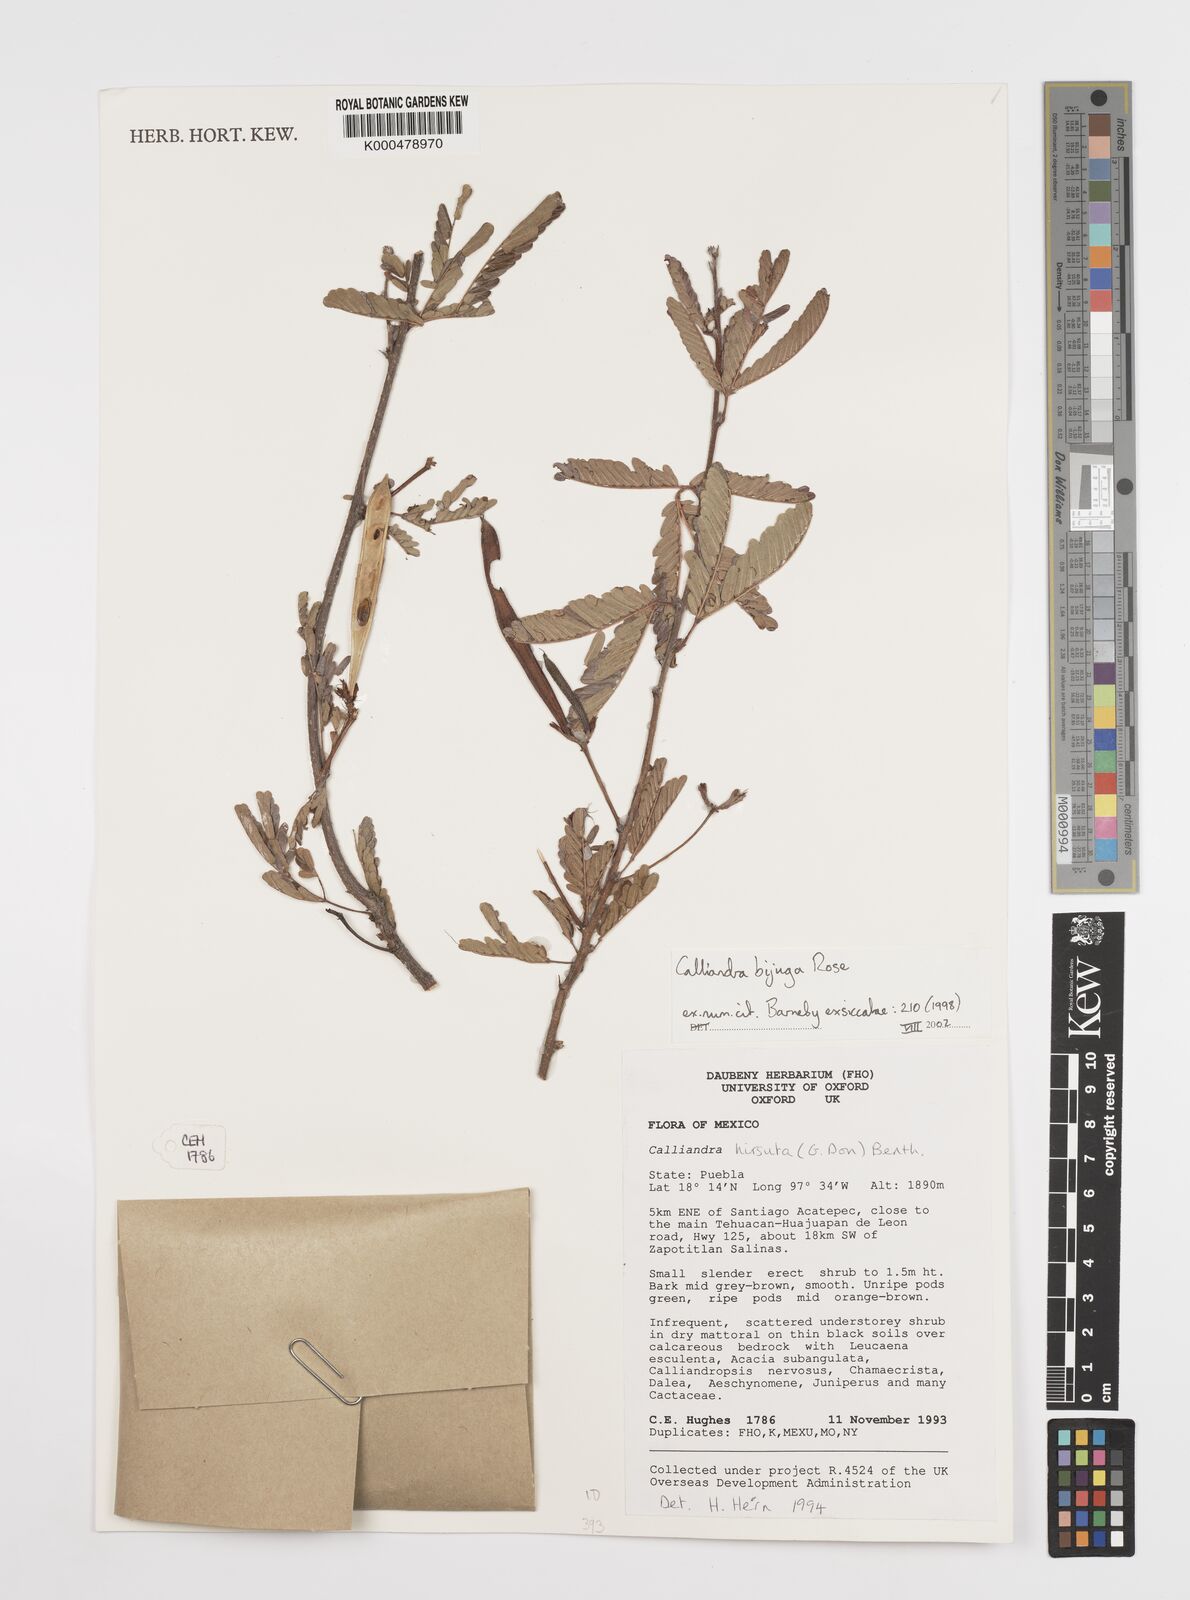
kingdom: Plantae
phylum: Tracheophyta
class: Magnoliopsida
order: Fabales
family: Fabaceae
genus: Calliandra
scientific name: Calliandra bijuga
